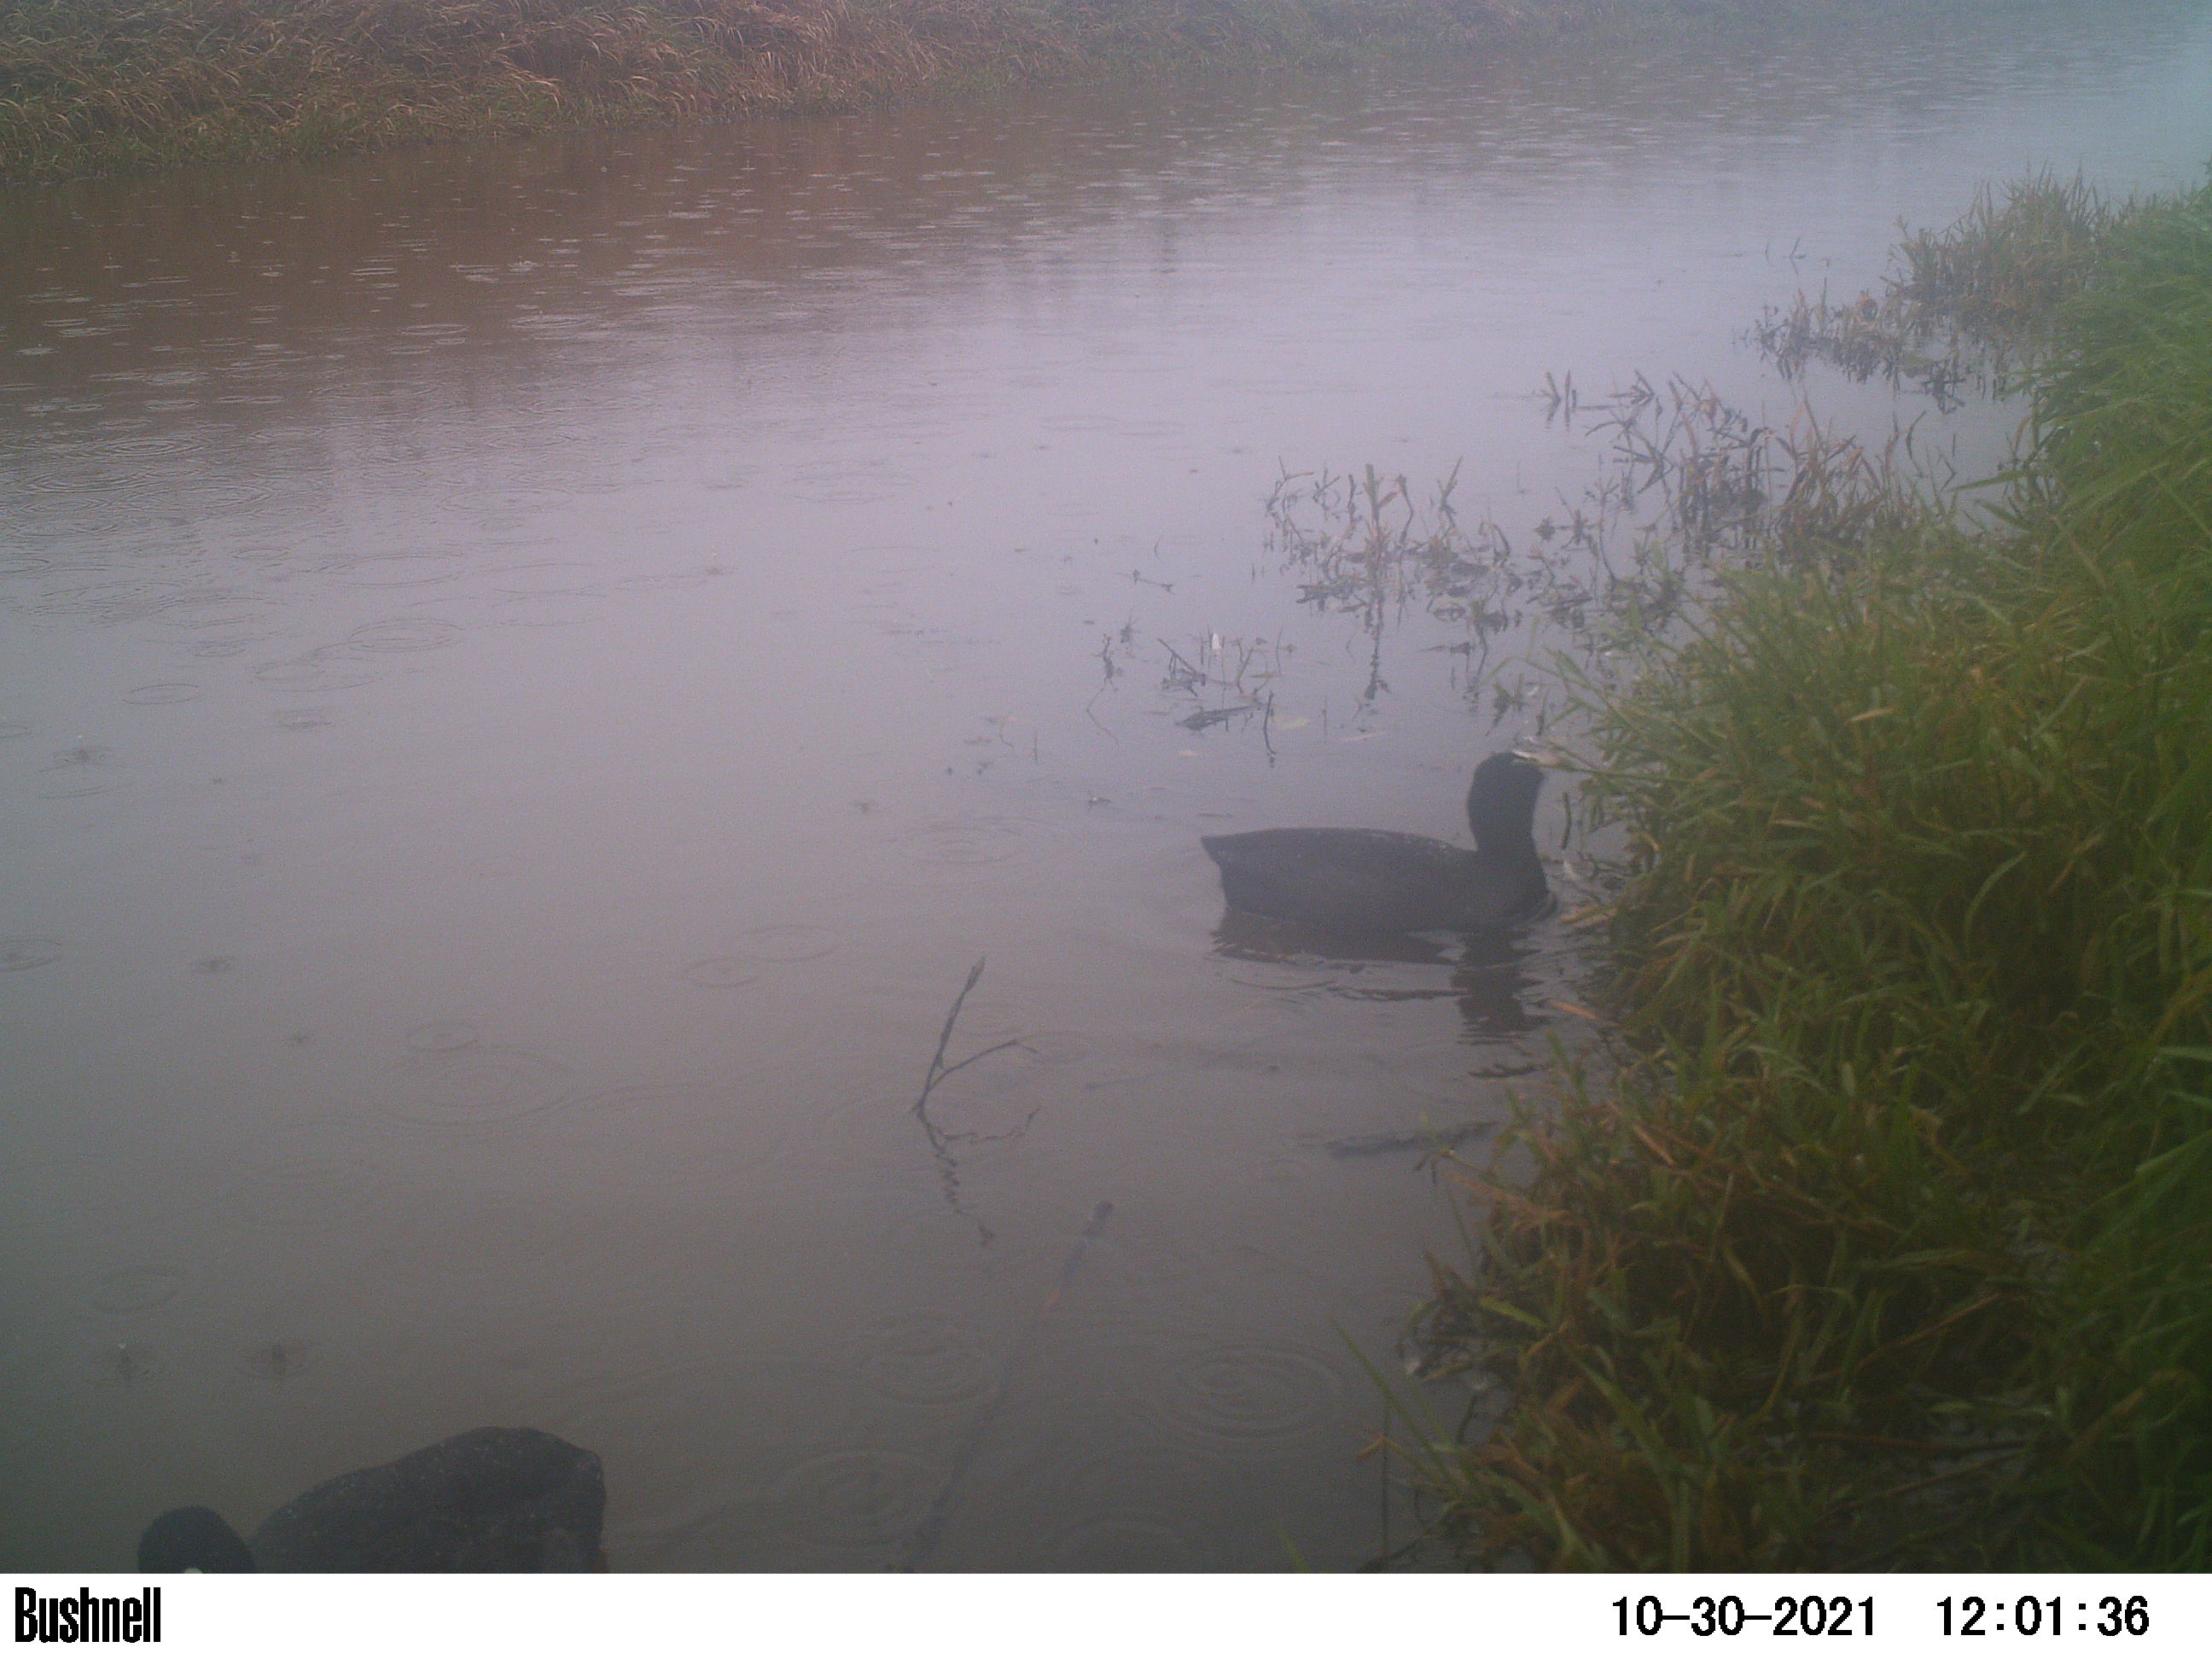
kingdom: Animalia
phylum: Chordata
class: Aves
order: Gruiformes
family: Rallidae
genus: Fulica
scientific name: Fulica atra
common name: Eurasian coot
